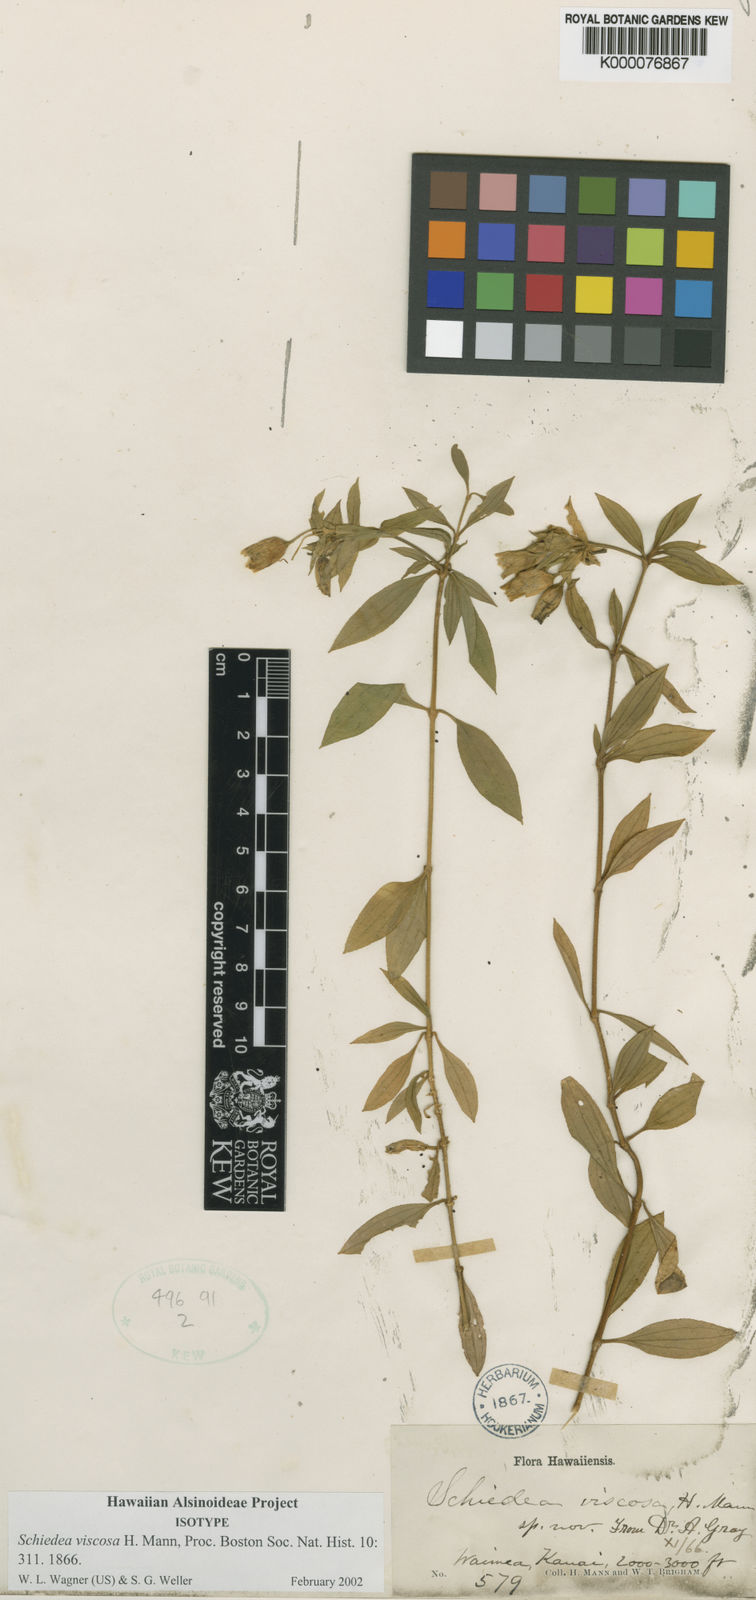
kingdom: Plantae
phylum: Tracheophyta
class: Magnoliopsida
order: Caryophyllales
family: Caryophyllaceae
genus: Schiedea
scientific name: Schiedea viscosa
